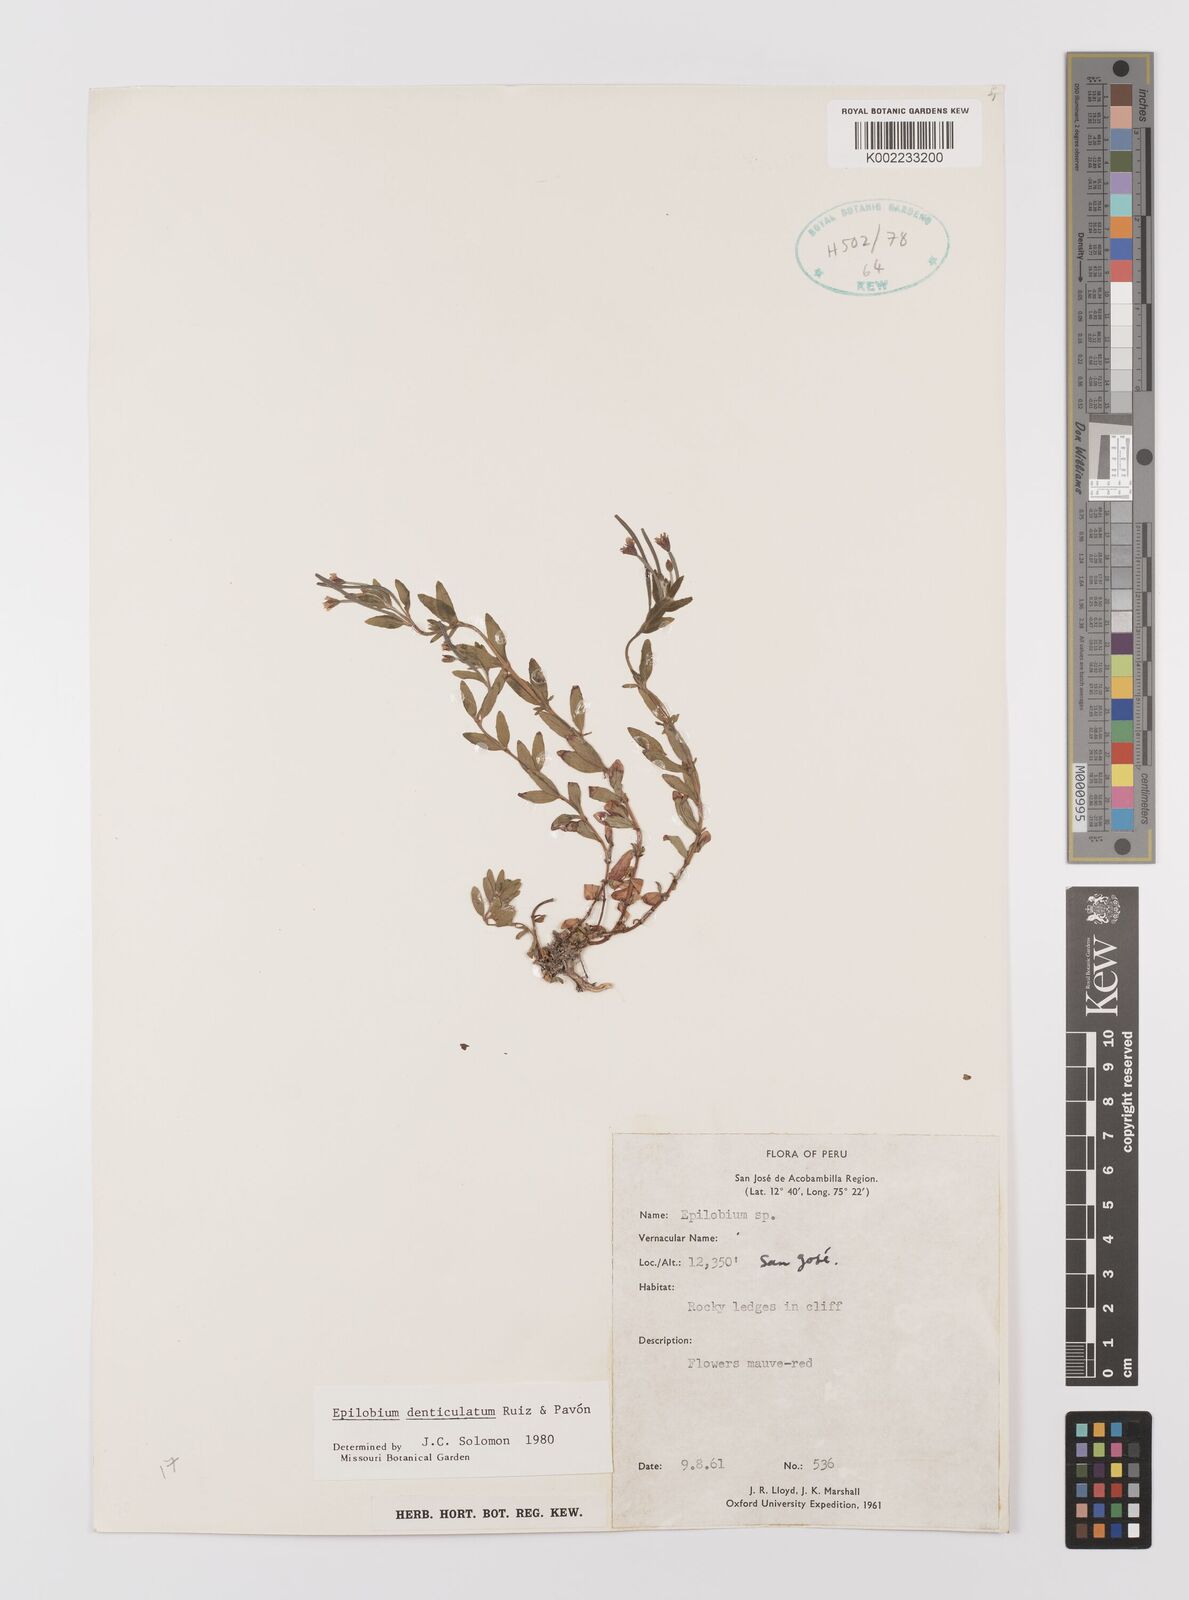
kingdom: Plantae
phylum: Tracheophyta
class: Magnoliopsida
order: Myrtales
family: Onagraceae
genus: Epilobium
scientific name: Epilobium denticulatum
